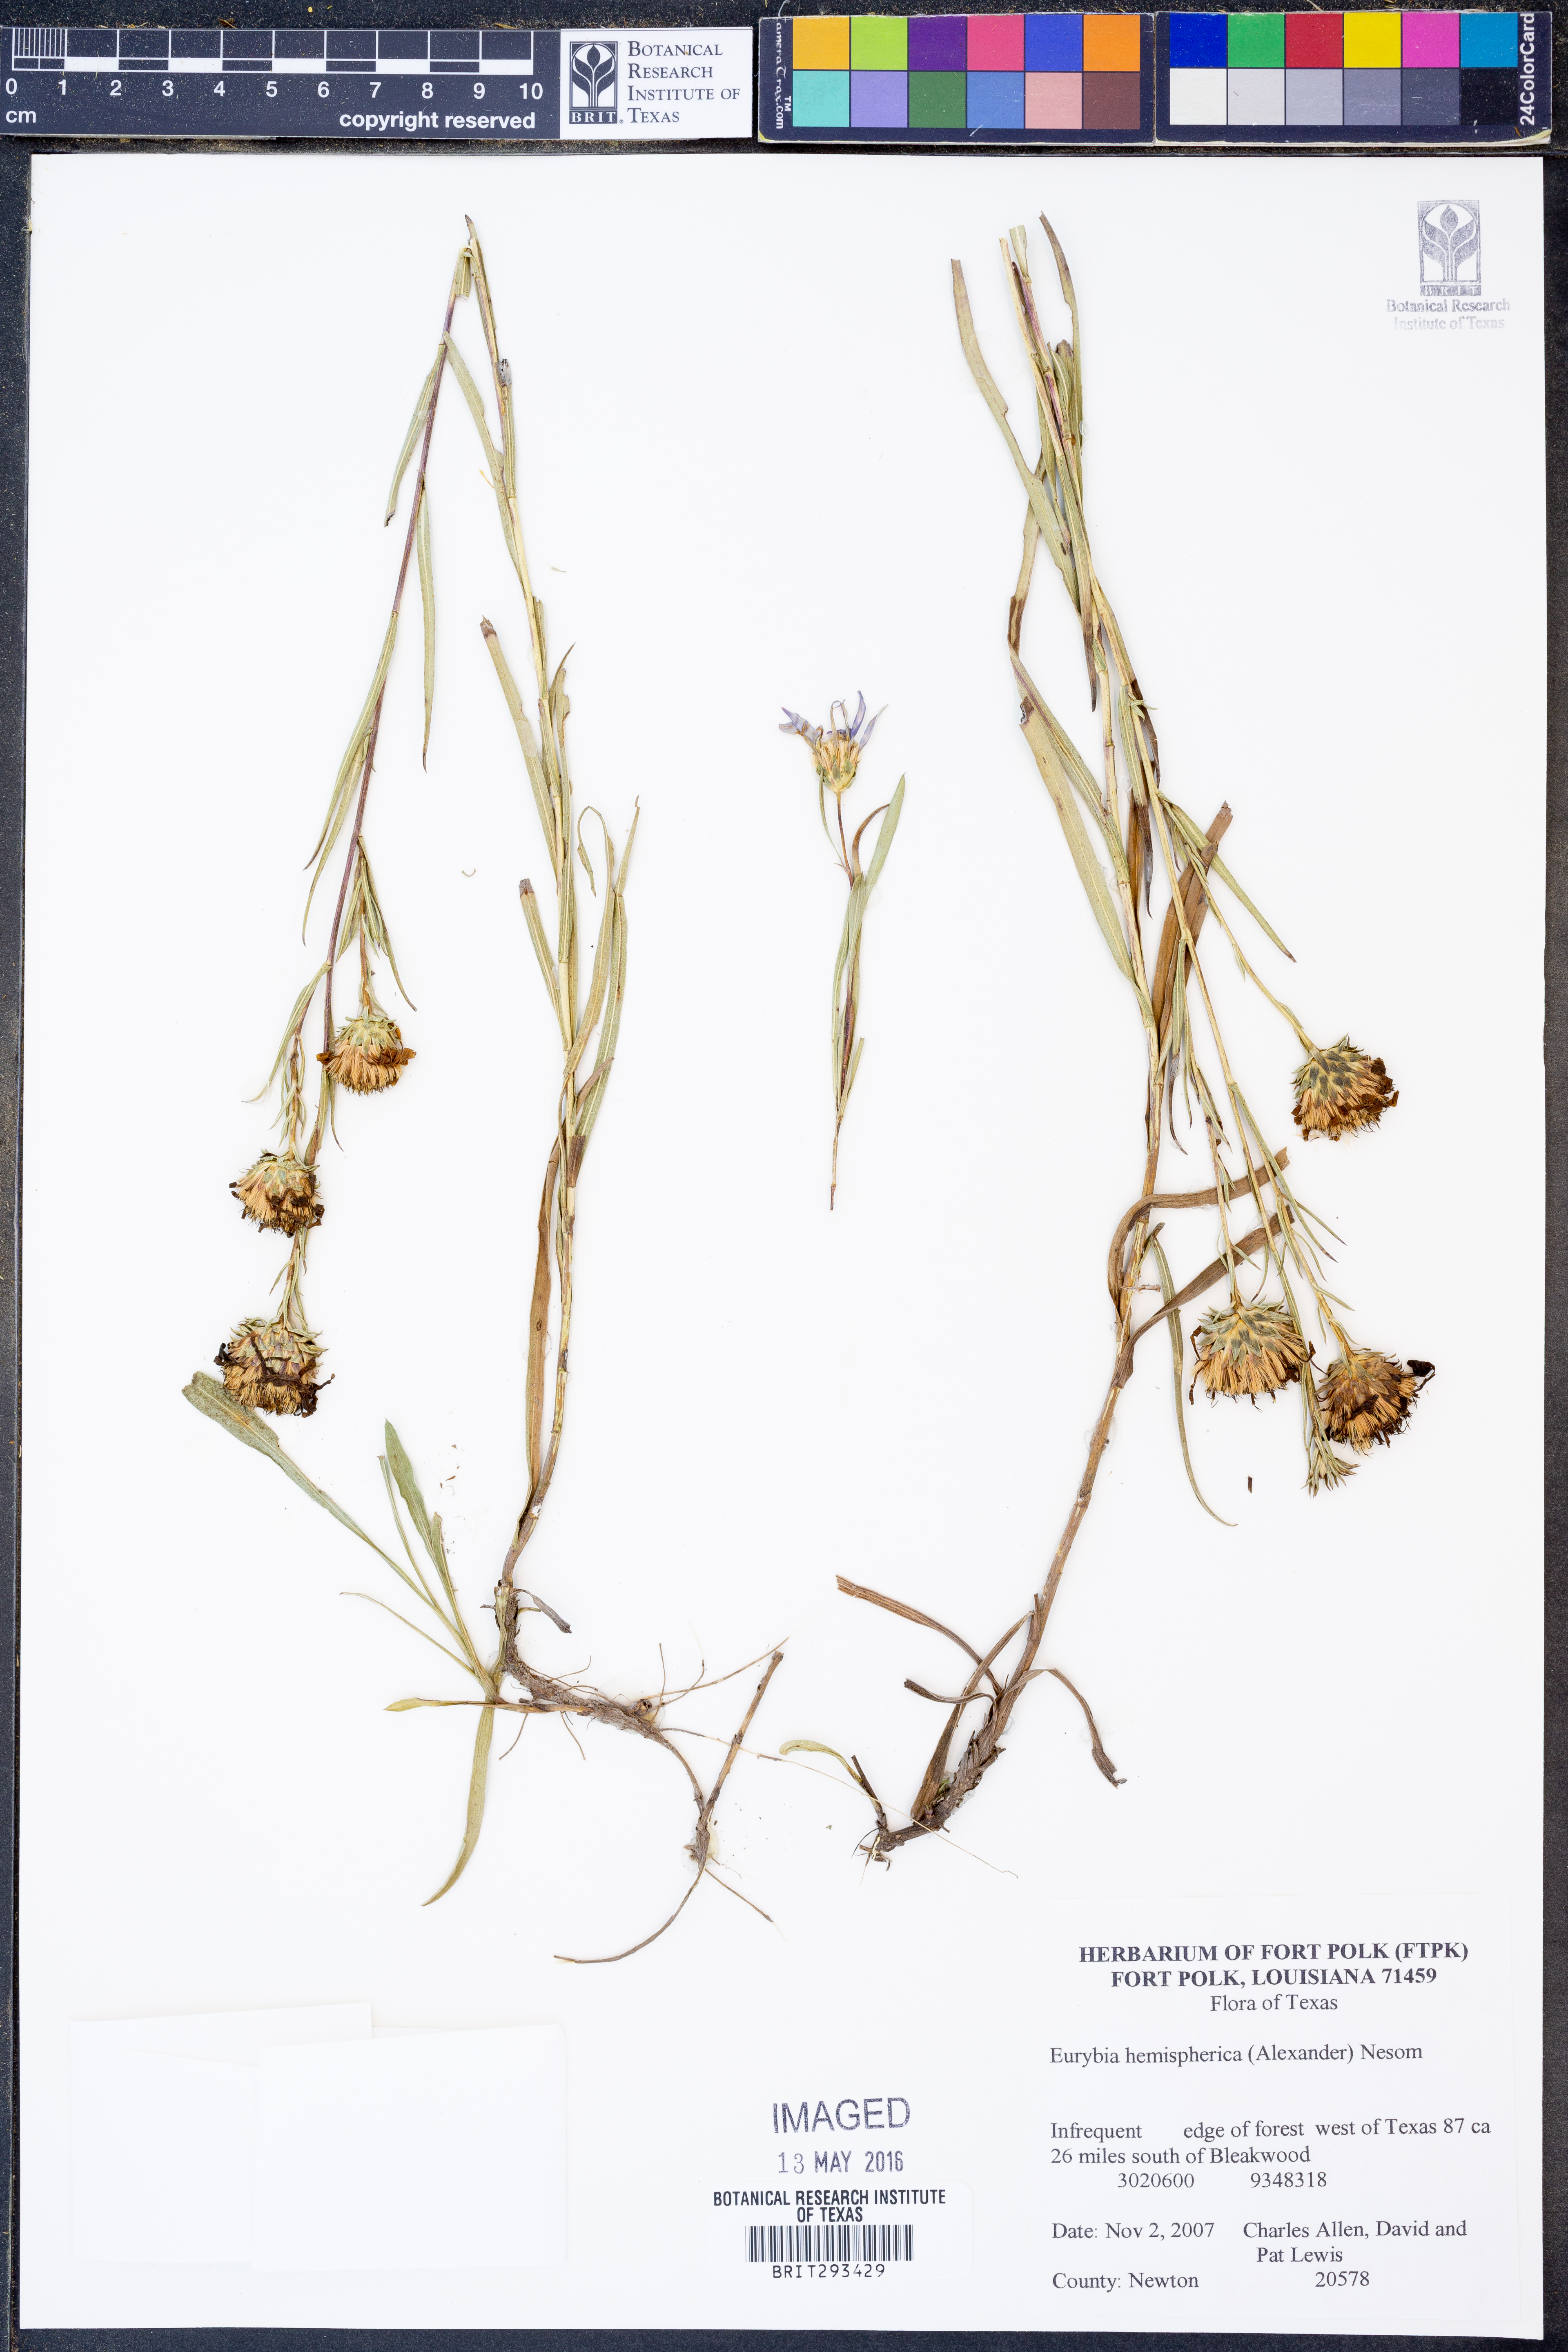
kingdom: Plantae
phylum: Tracheophyta
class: Magnoliopsida
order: Asterales
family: Asteraceae
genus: Eurybia
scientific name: Eurybia hemispherica
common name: Showy aster
